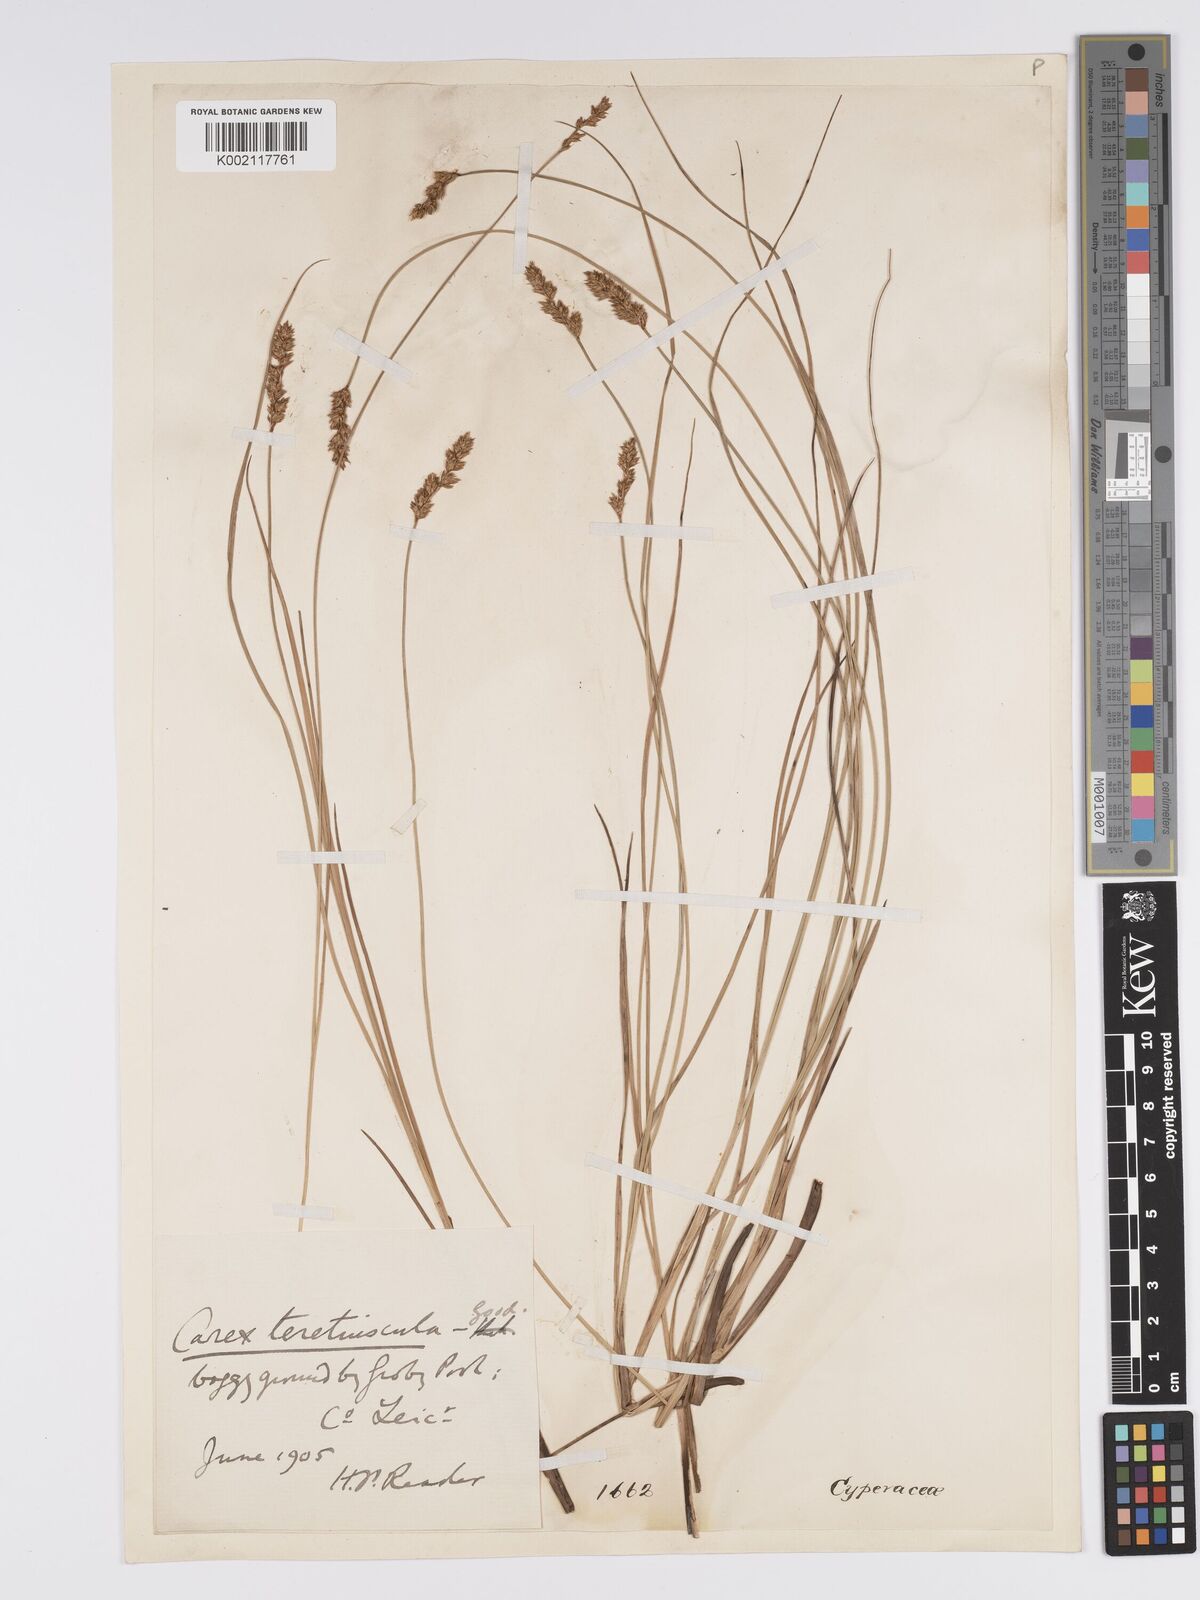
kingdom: Plantae
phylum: Tracheophyta
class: Liliopsida
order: Poales
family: Cyperaceae
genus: Carex
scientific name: Carex diandra
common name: Lesser tussock-sedge
